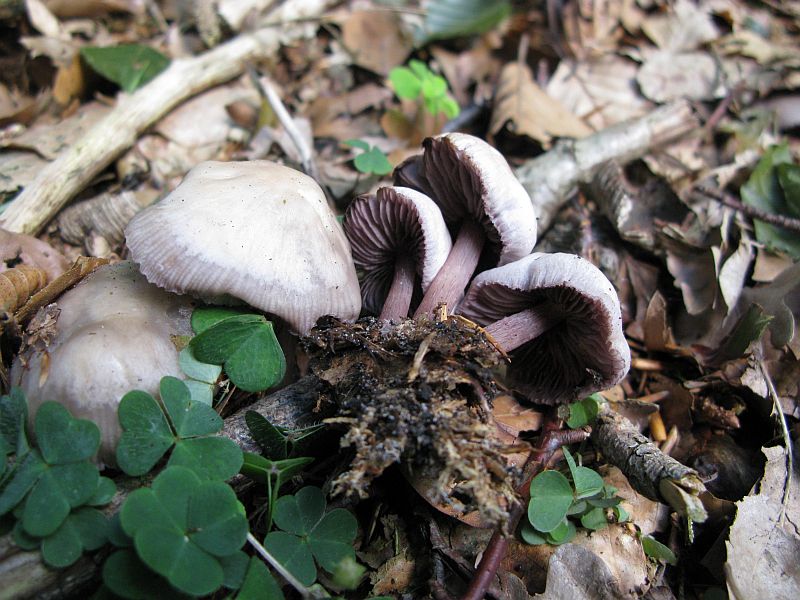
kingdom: Fungi
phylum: Basidiomycota
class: Agaricomycetes
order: Agaricales
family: Mycenaceae
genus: Mycena
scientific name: Mycena pelianthina
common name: mørkbladet huesvamp
